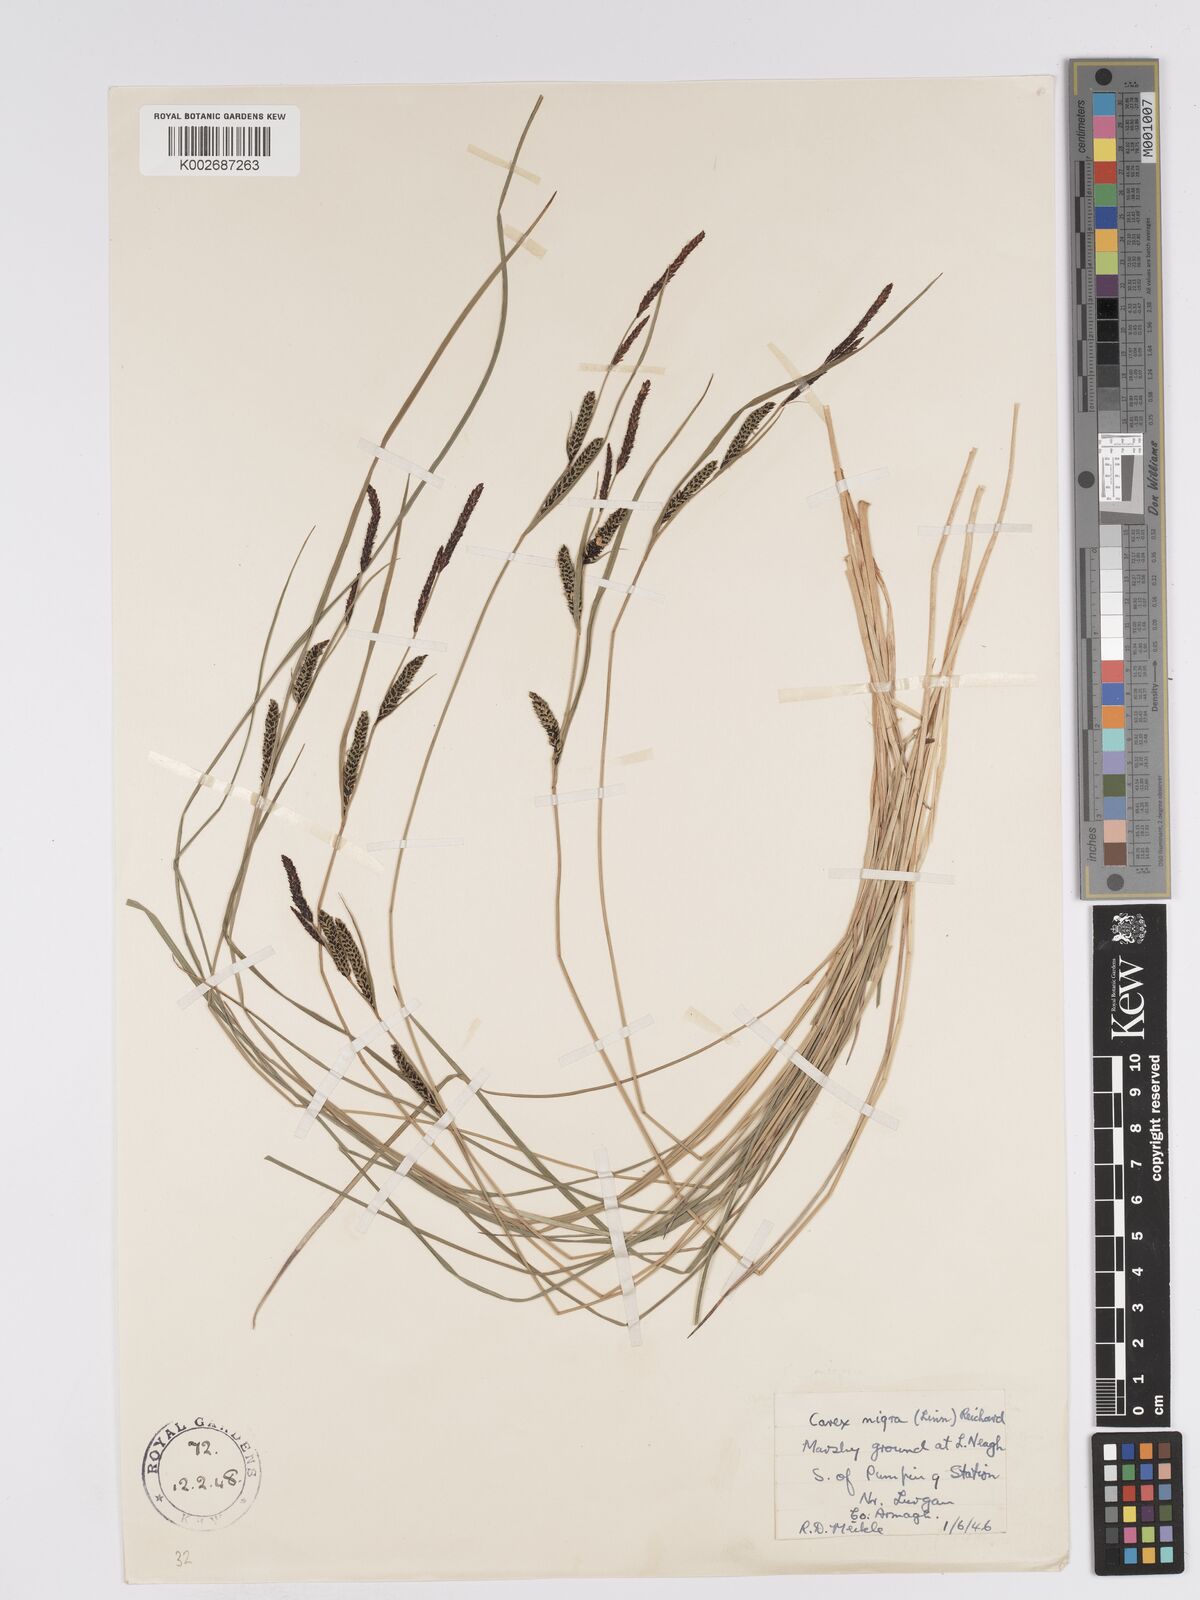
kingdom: Plantae
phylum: Tracheophyta
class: Liliopsida
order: Poales
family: Cyperaceae
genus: Carex
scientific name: Carex nigra
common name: Common sedge
